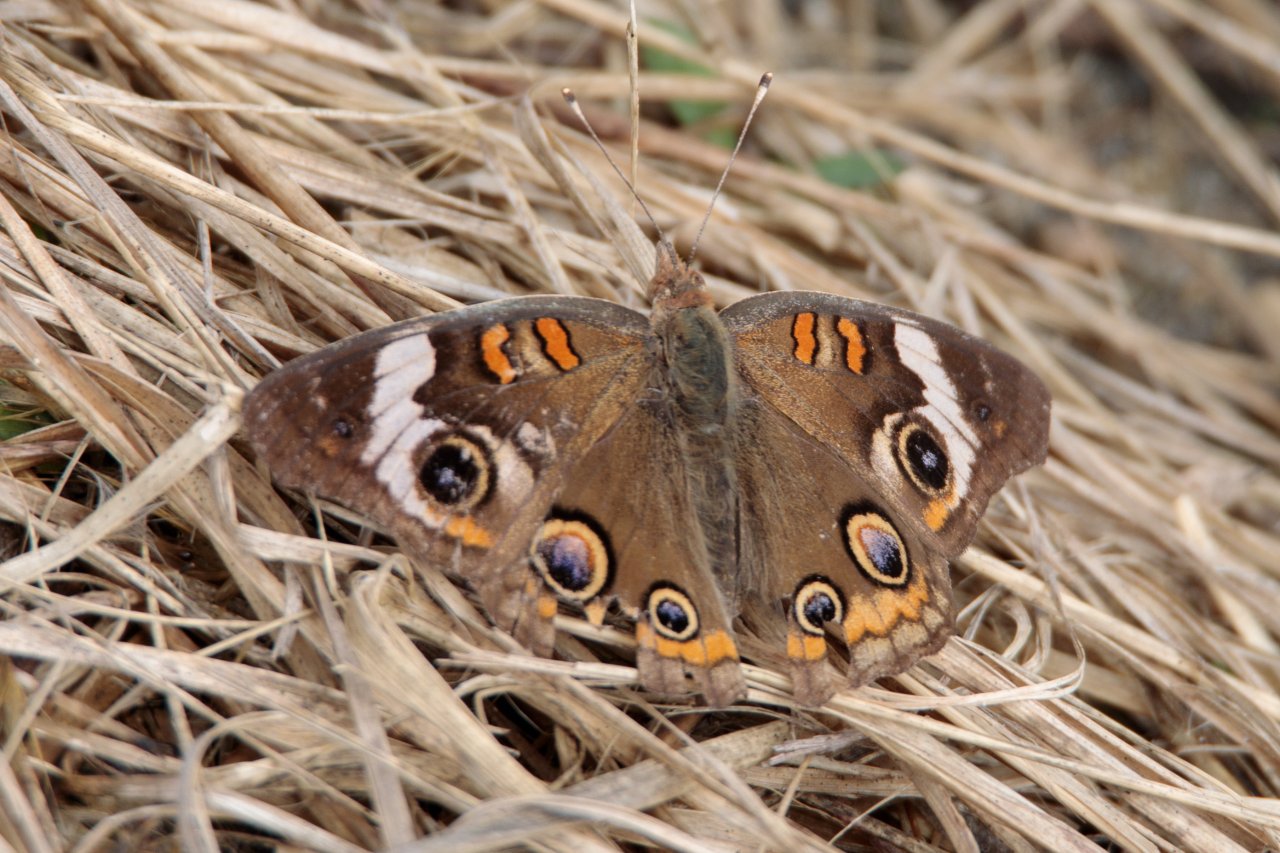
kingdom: Animalia
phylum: Arthropoda
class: Insecta
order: Lepidoptera
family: Nymphalidae
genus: Junonia
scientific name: Junonia coenia
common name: Common Buckeye
